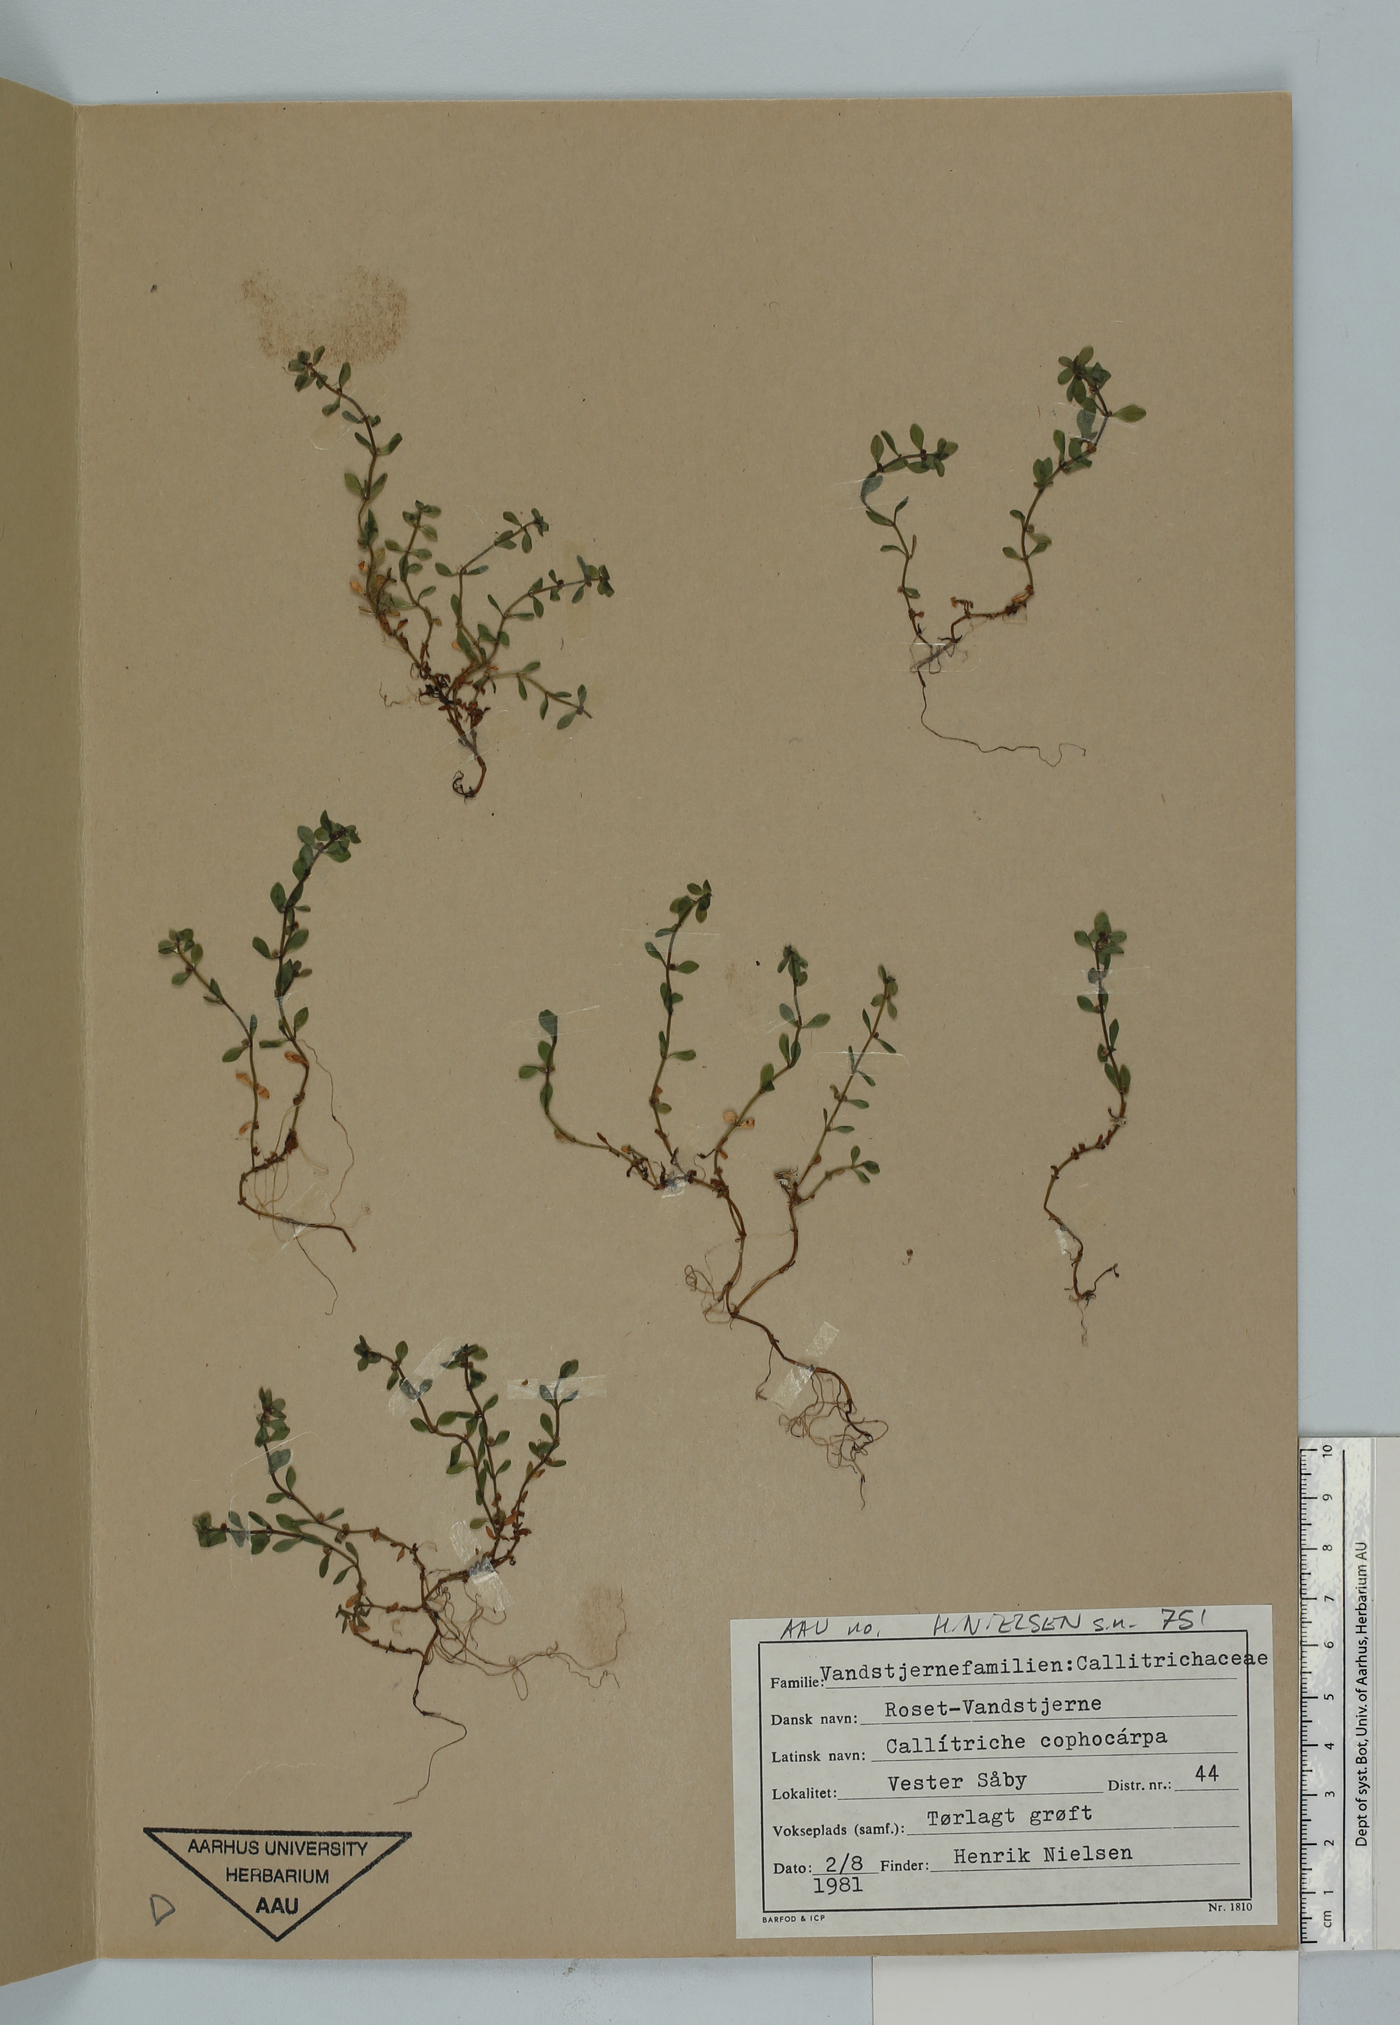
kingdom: Plantae
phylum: Tracheophyta
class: Magnoliopsida
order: Lamiales
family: Plantaginaceae
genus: Callitriche
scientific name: Callitriche cophocarpa
